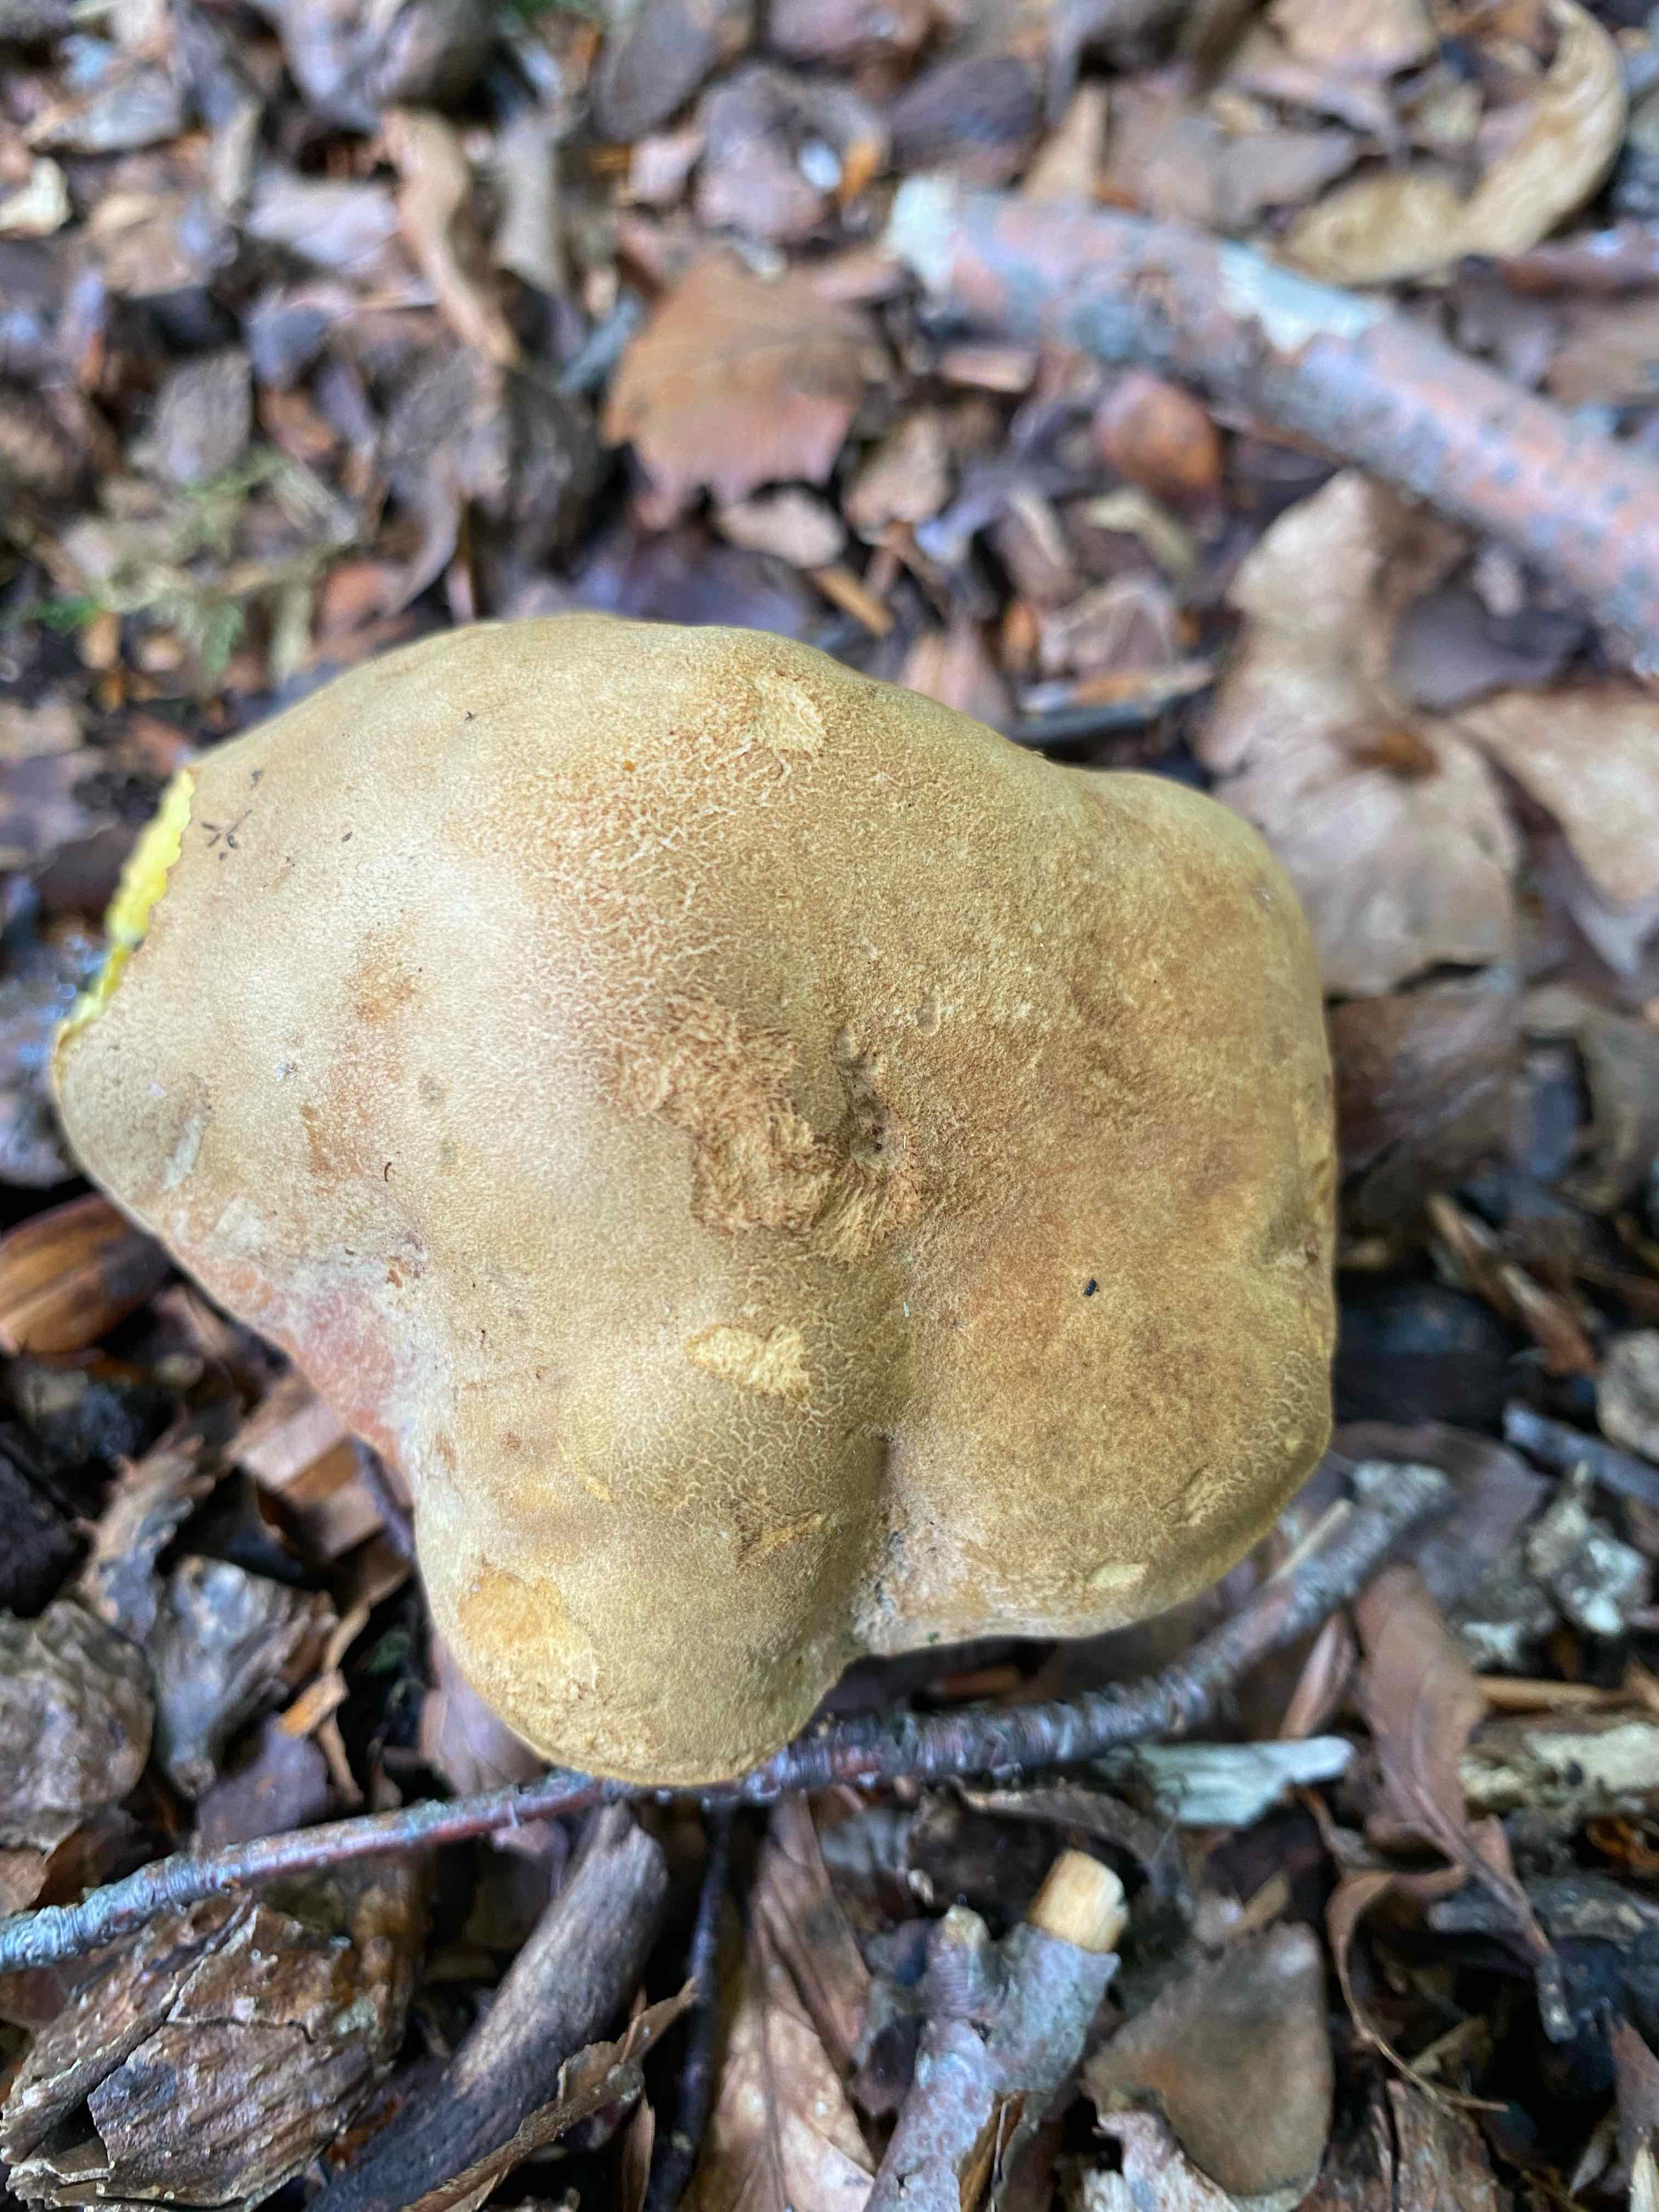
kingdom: Fungi
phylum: Basidiomycota
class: Agaricomycetes
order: Boletales
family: Boletaceae
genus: Butyriboletus
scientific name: Butyriboletus appendiculatus
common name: tenstokket rørhat
